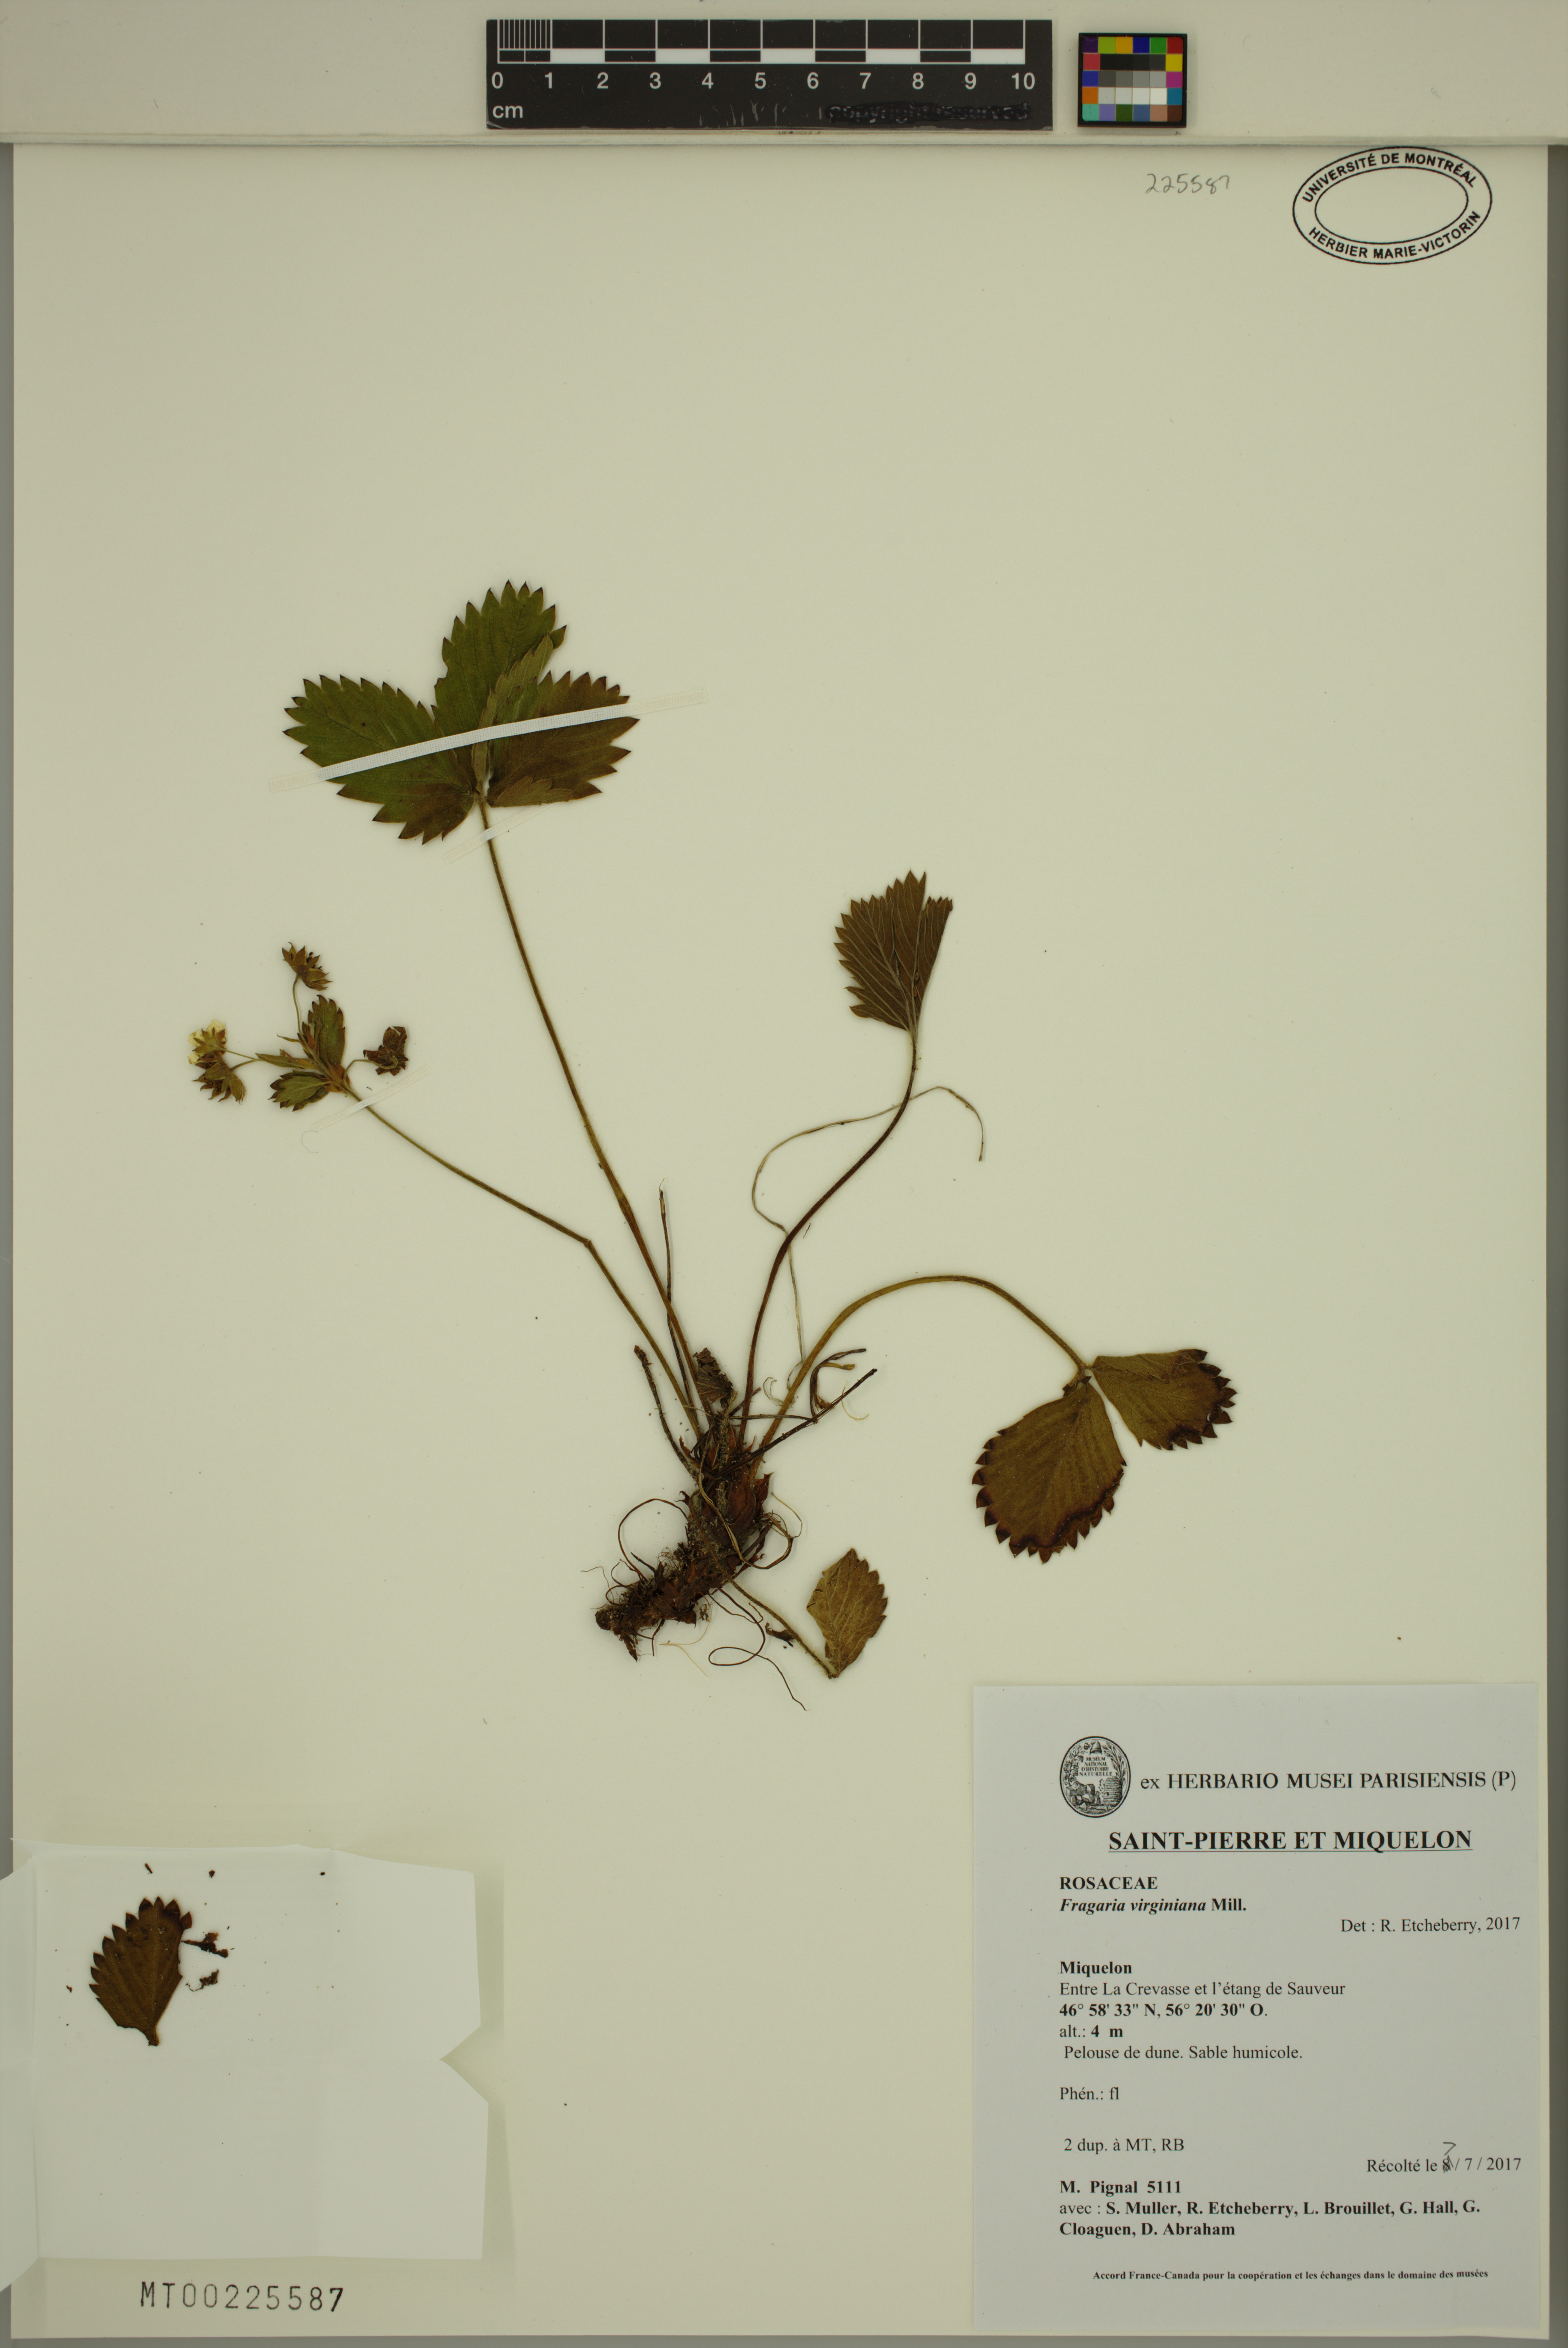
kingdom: Plantae
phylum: Tracheophyta
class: Magnoliopsida
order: Rosales
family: Rosaceae
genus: Fragaria
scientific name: Fragaria virginiana
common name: Thickleaved wild strawberry
